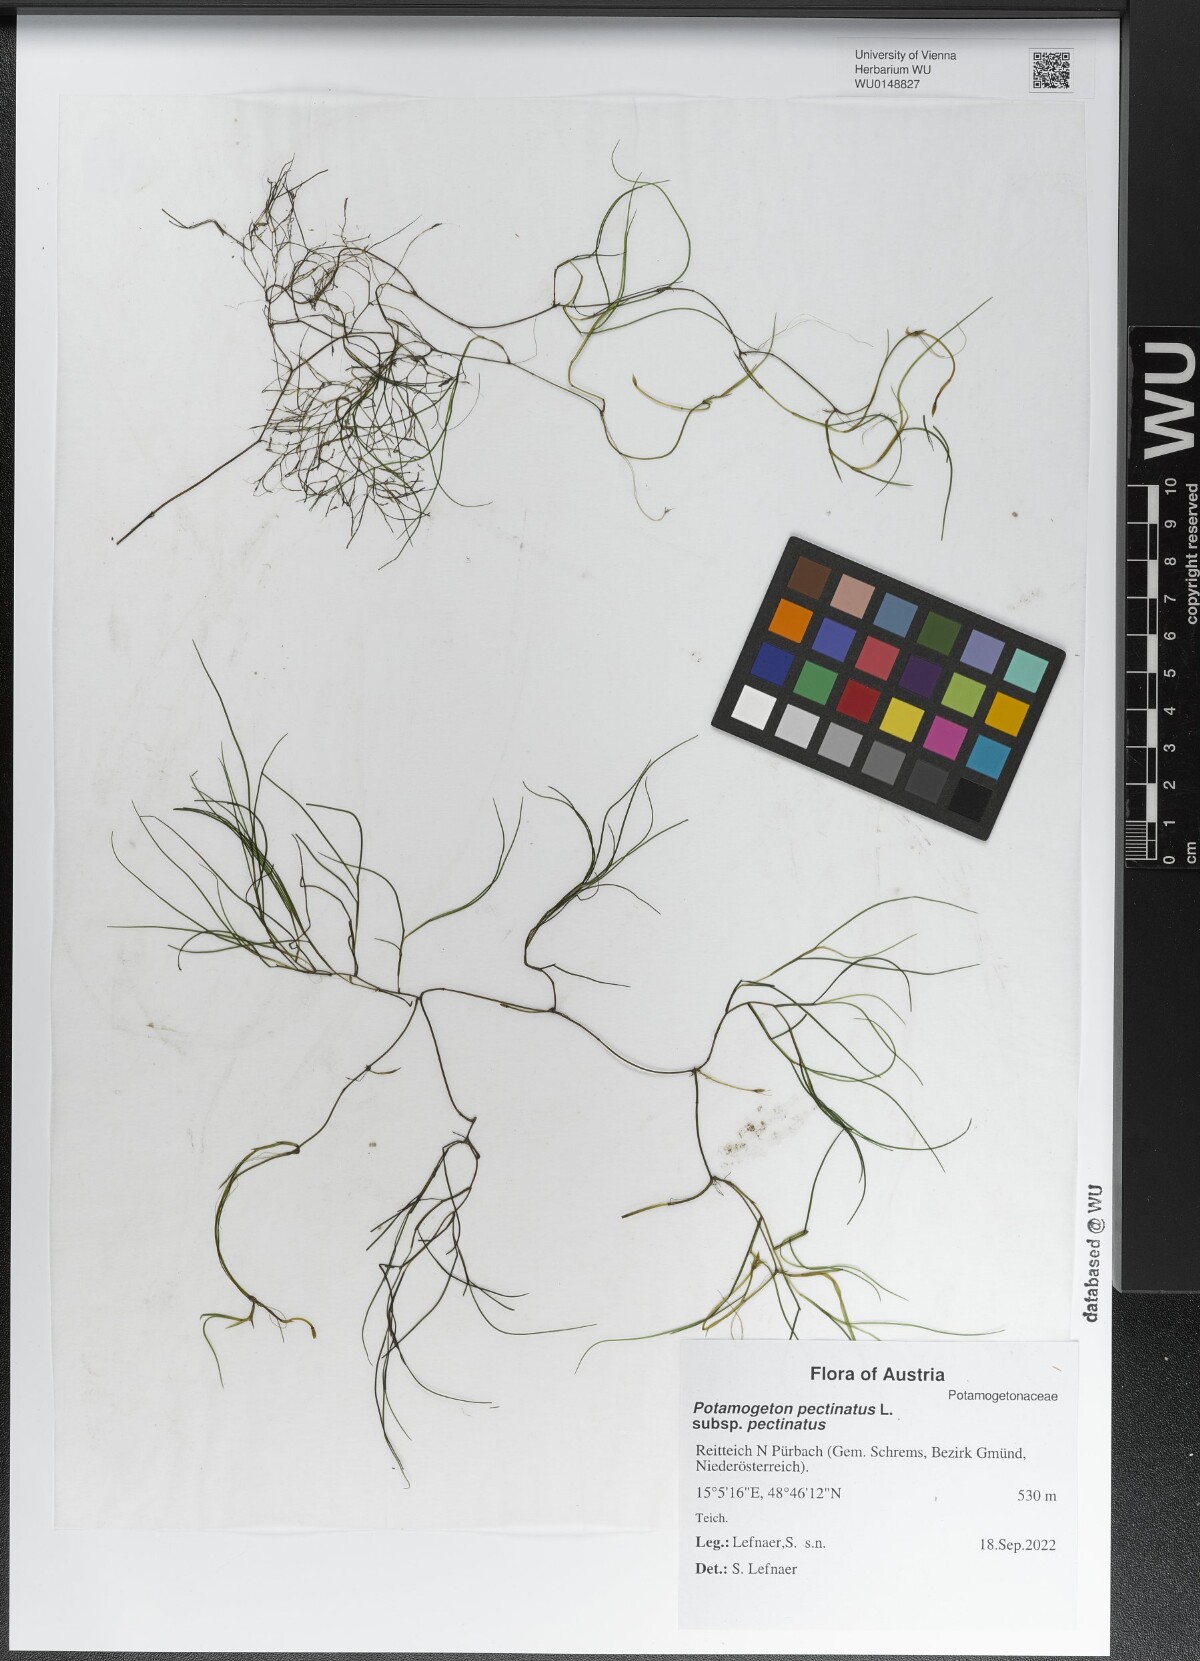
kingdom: Plantae
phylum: Tracheophyta
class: Liliopsida
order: Alismatales
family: Potamogetonaceae
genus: Stuckenia
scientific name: Stuckenia pectinata
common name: Sago pondweed
